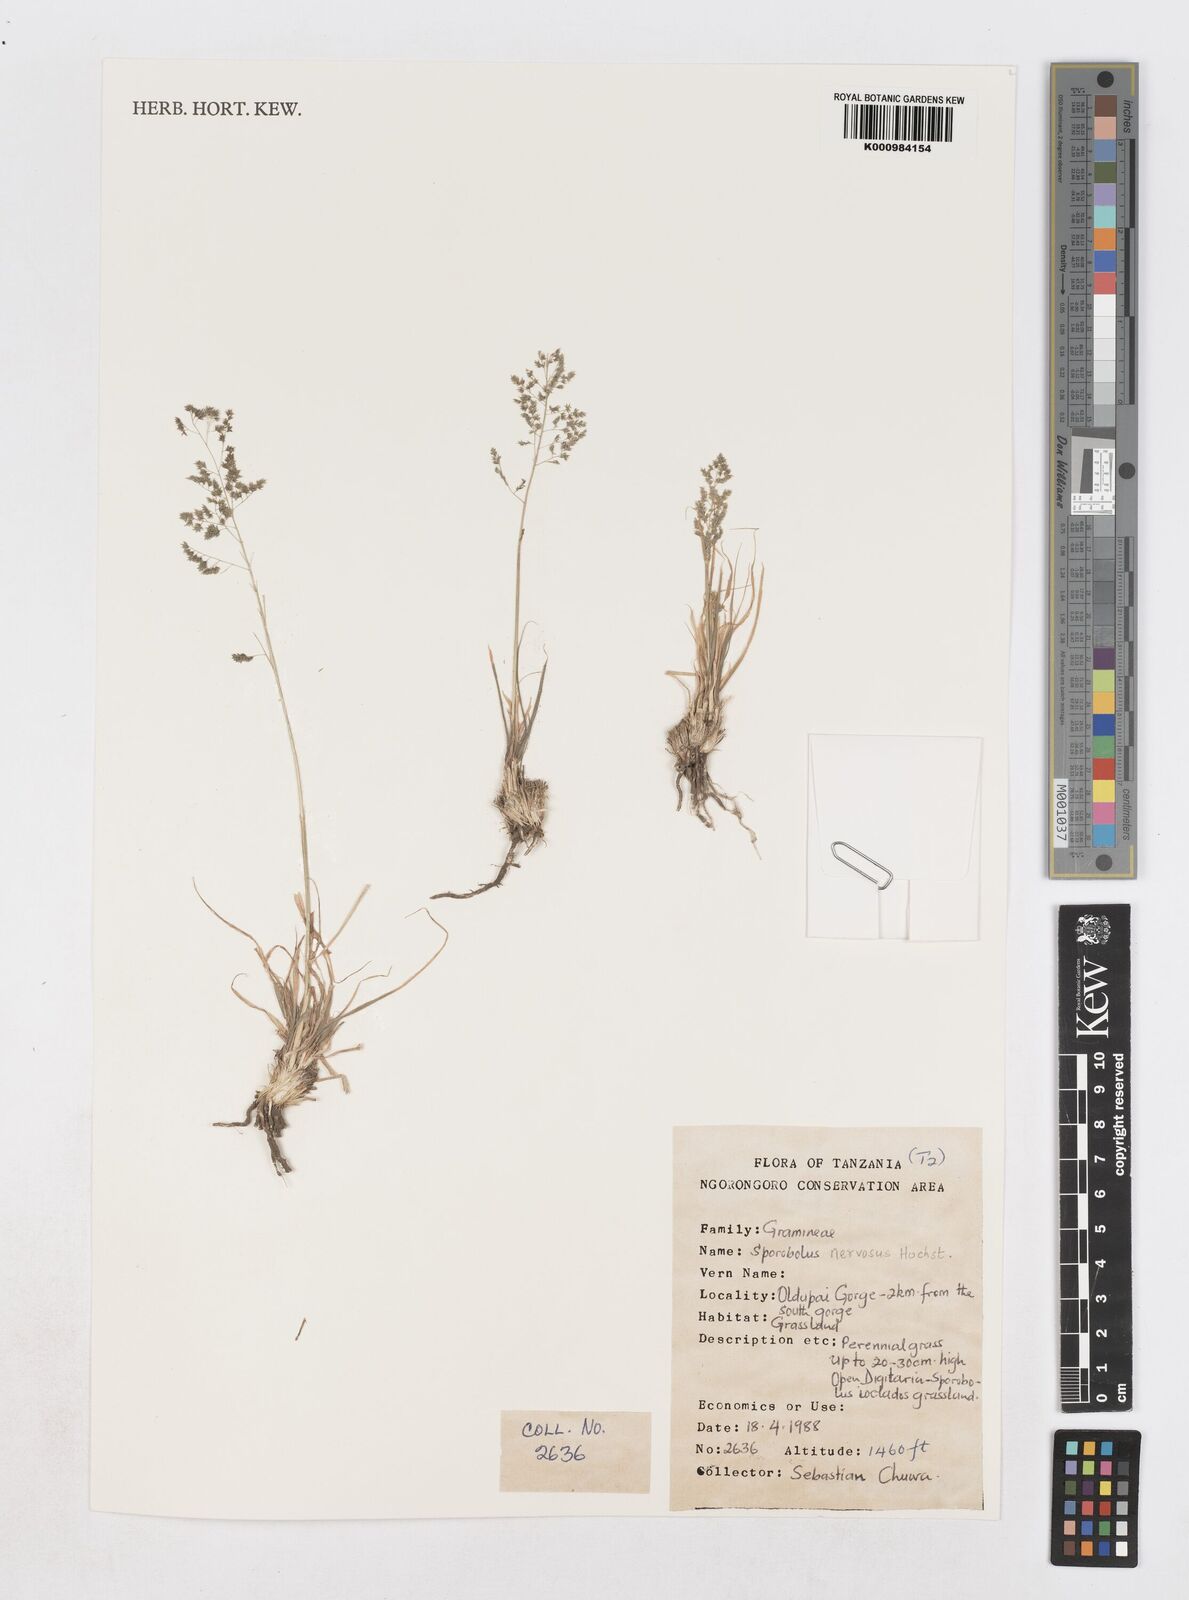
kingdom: Plantae
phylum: Tracheophyta
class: Liliopsida
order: Poales
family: Poaceae
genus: Sporobolus
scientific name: Sporobolus nervosus
